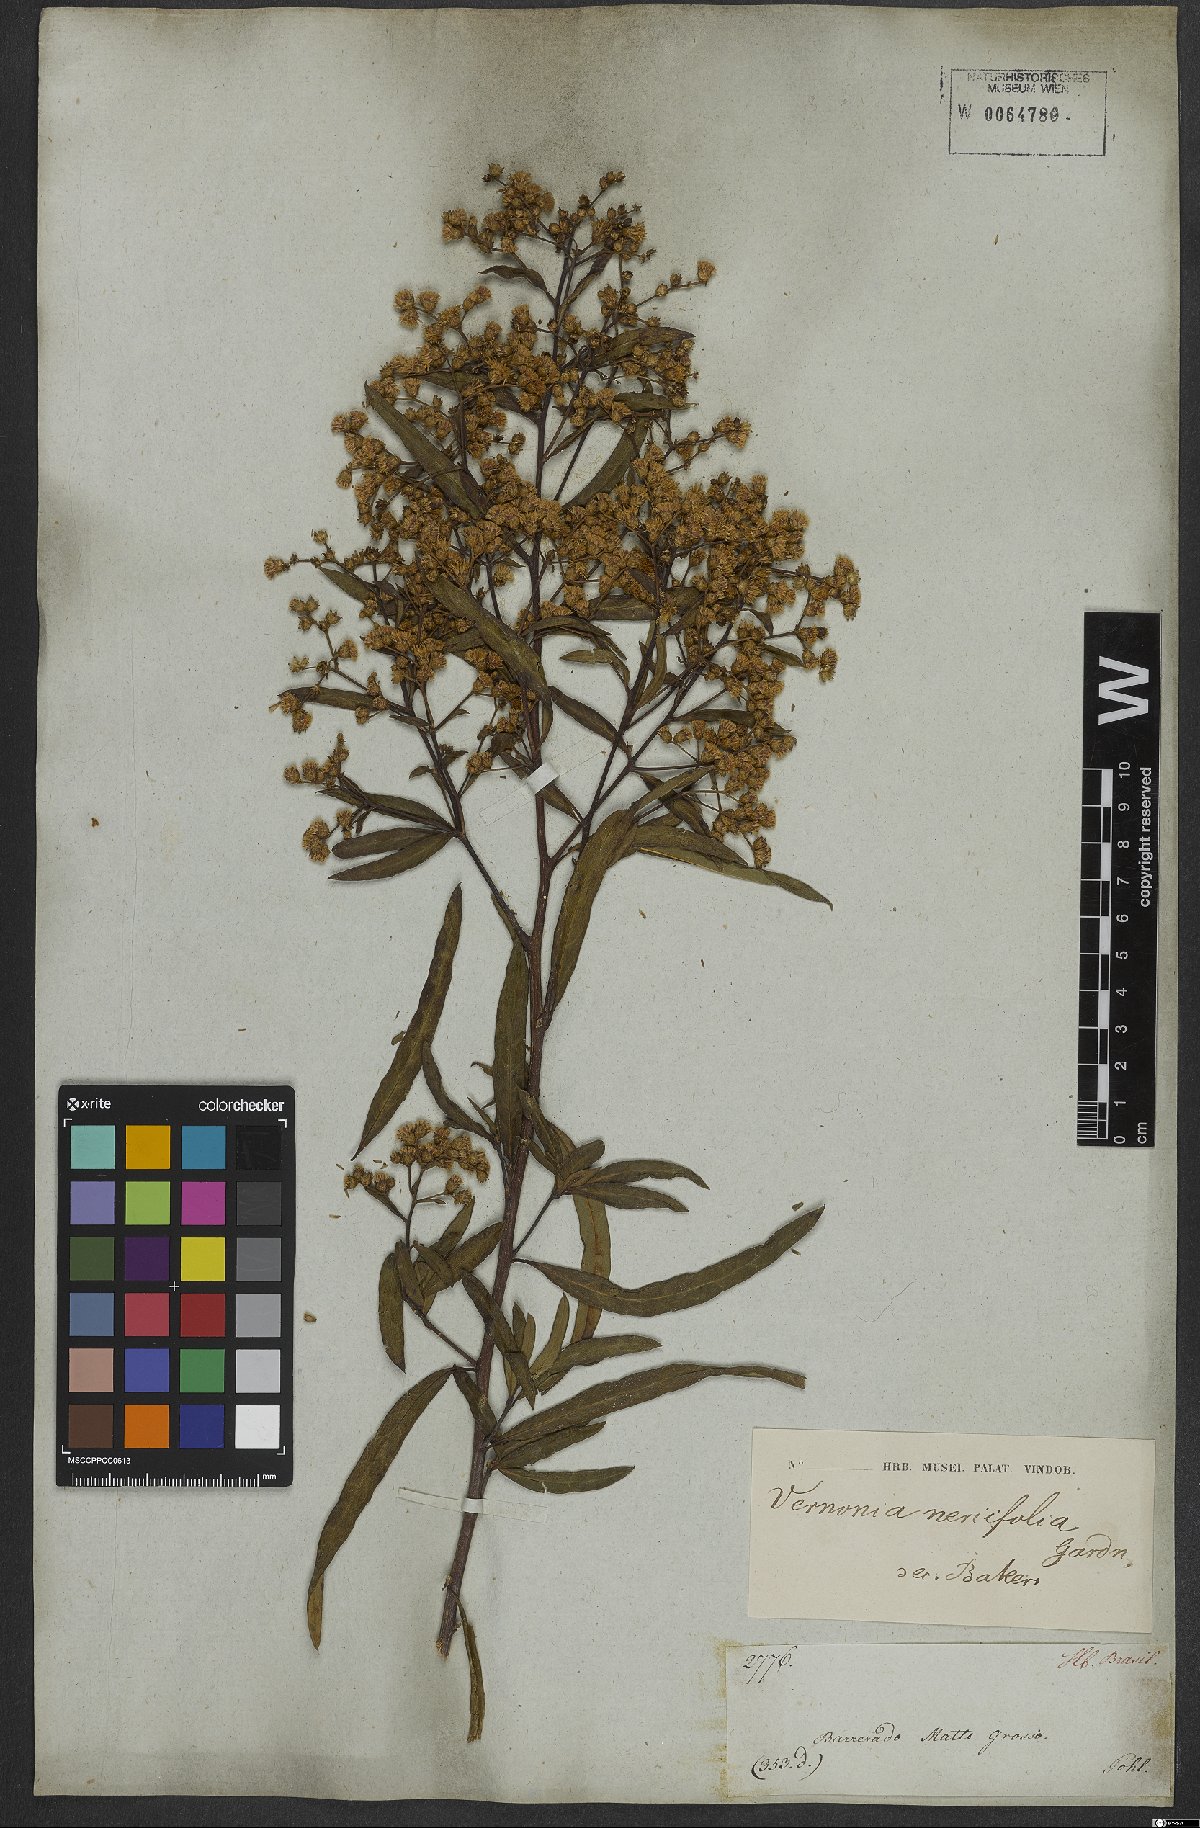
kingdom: Plantae
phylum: Tracheophyta
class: Magnoliopsida
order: Asterales
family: Asteraceae
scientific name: Asteraceae
